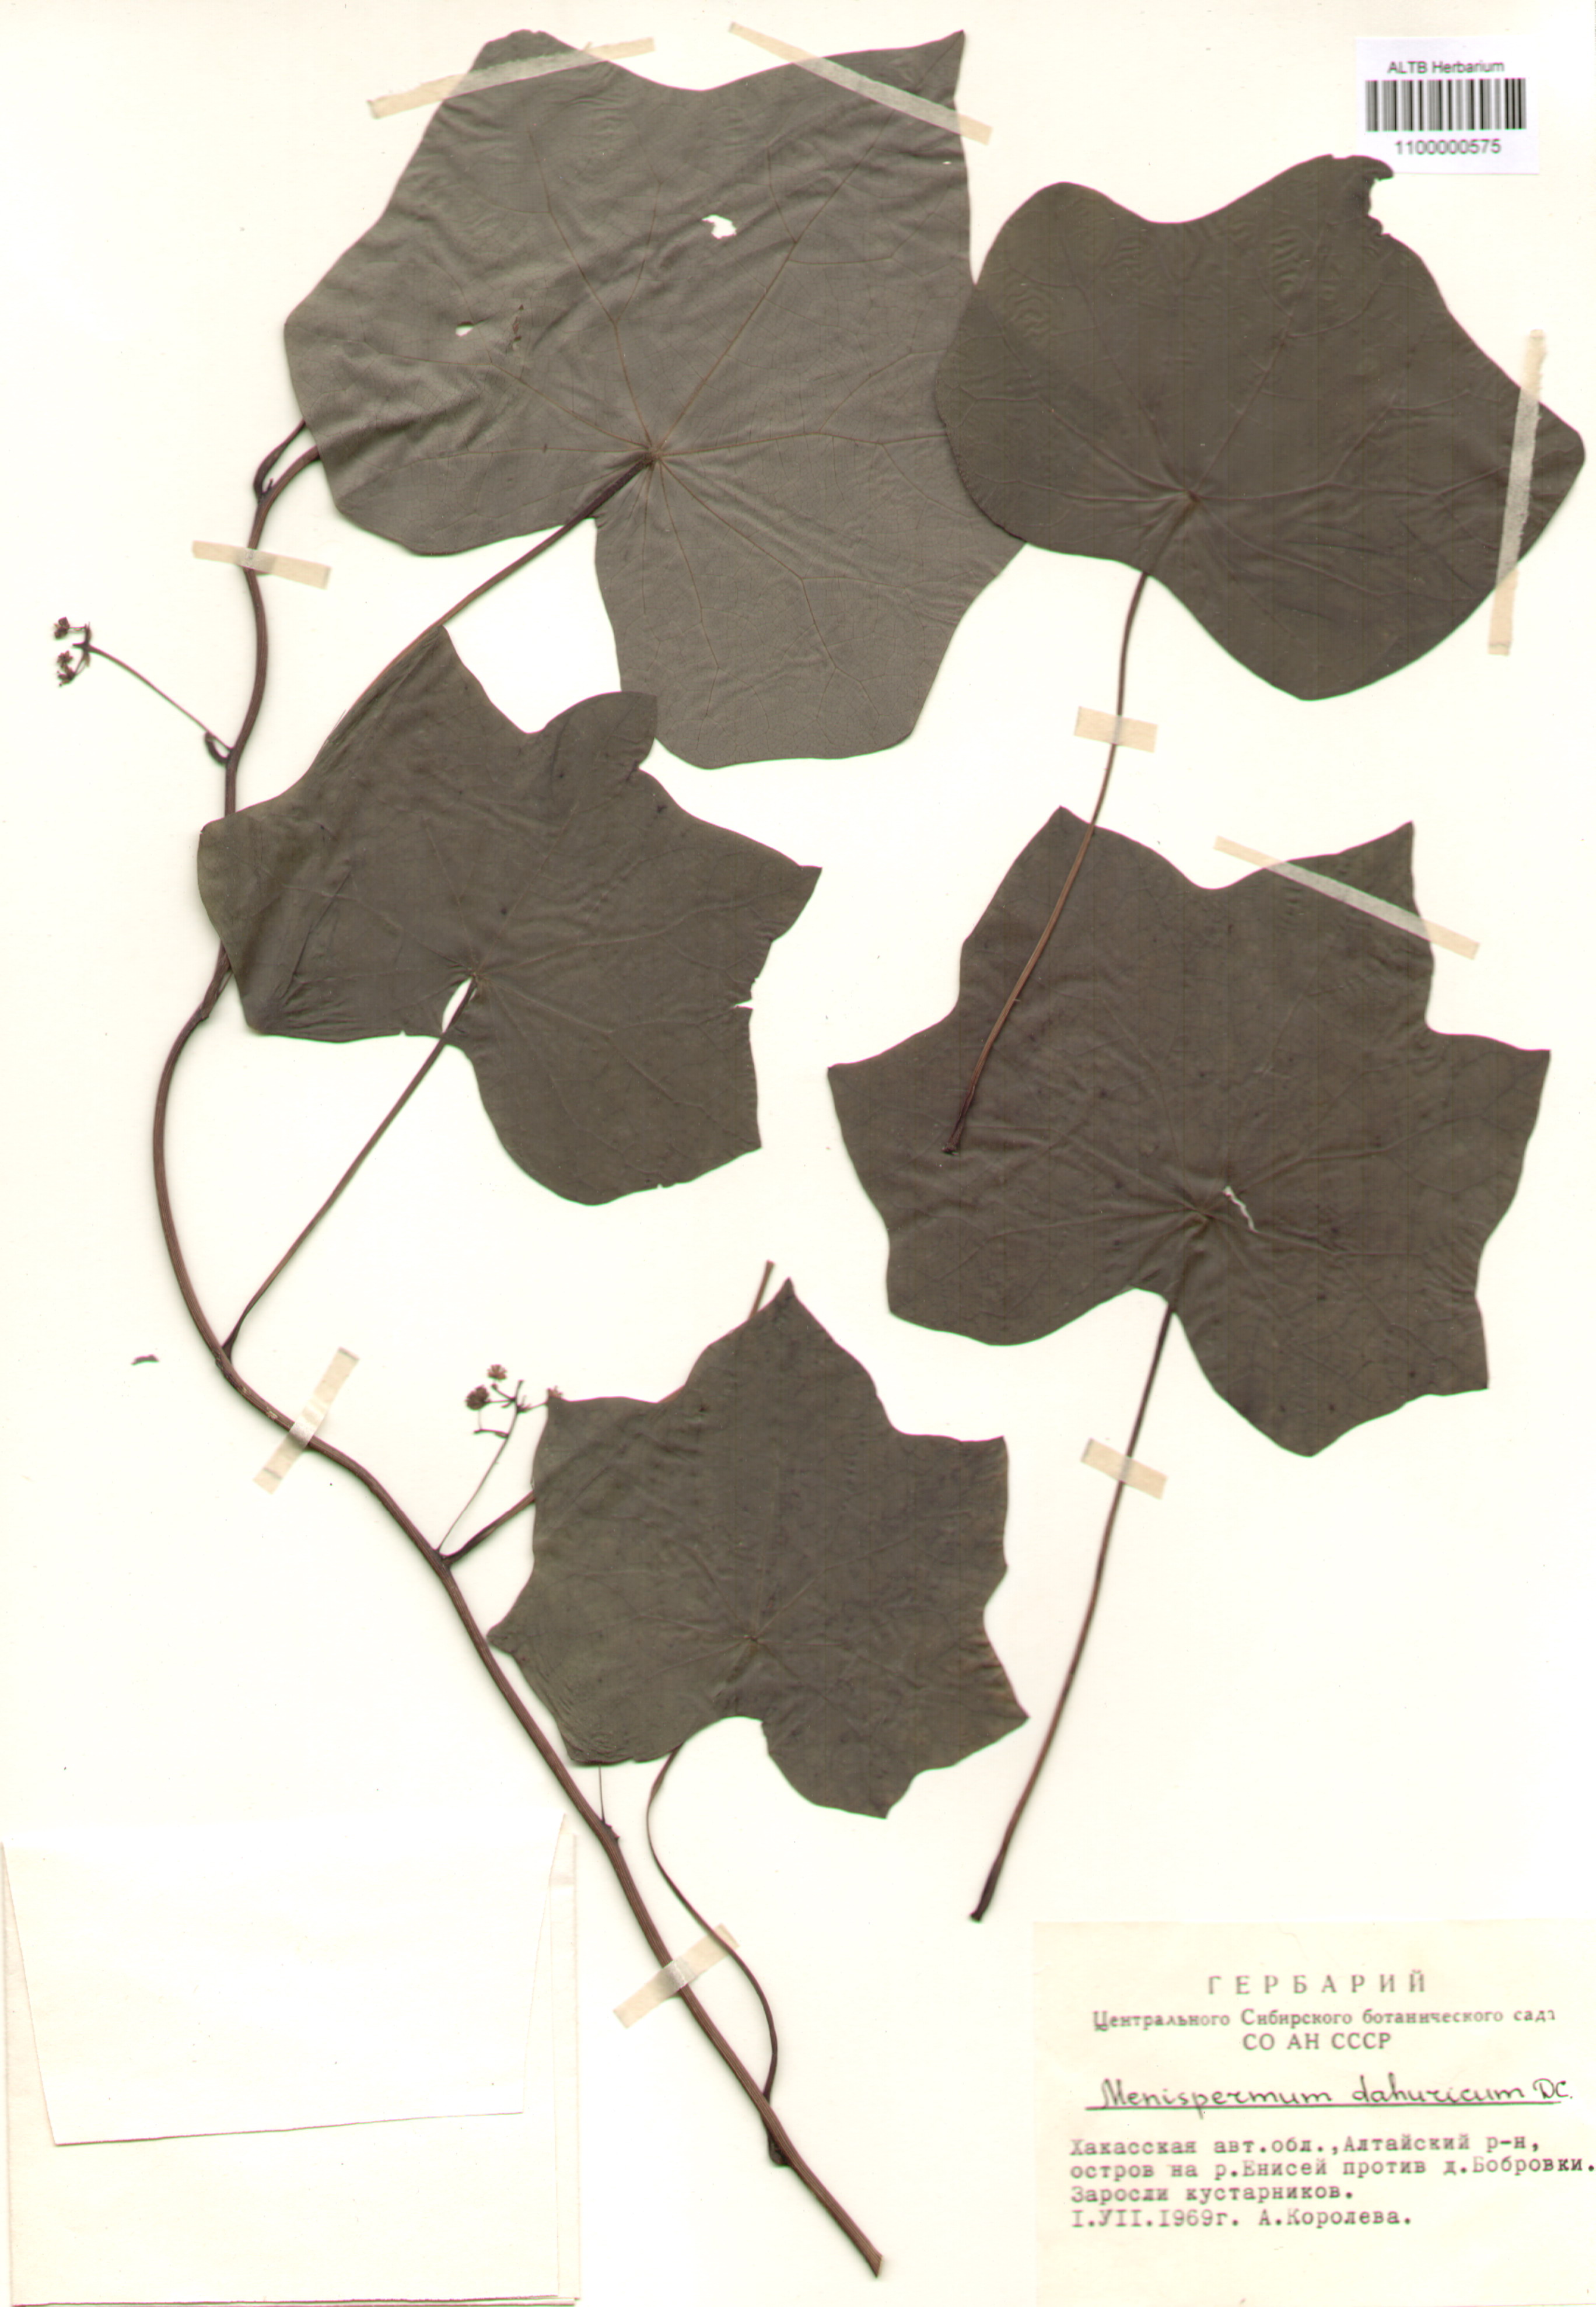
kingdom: Plantae
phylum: Tracheophyta
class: Magnoliopsida
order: Ranunculales
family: Menispermaceae
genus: Menispermum
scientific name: Menispermum
